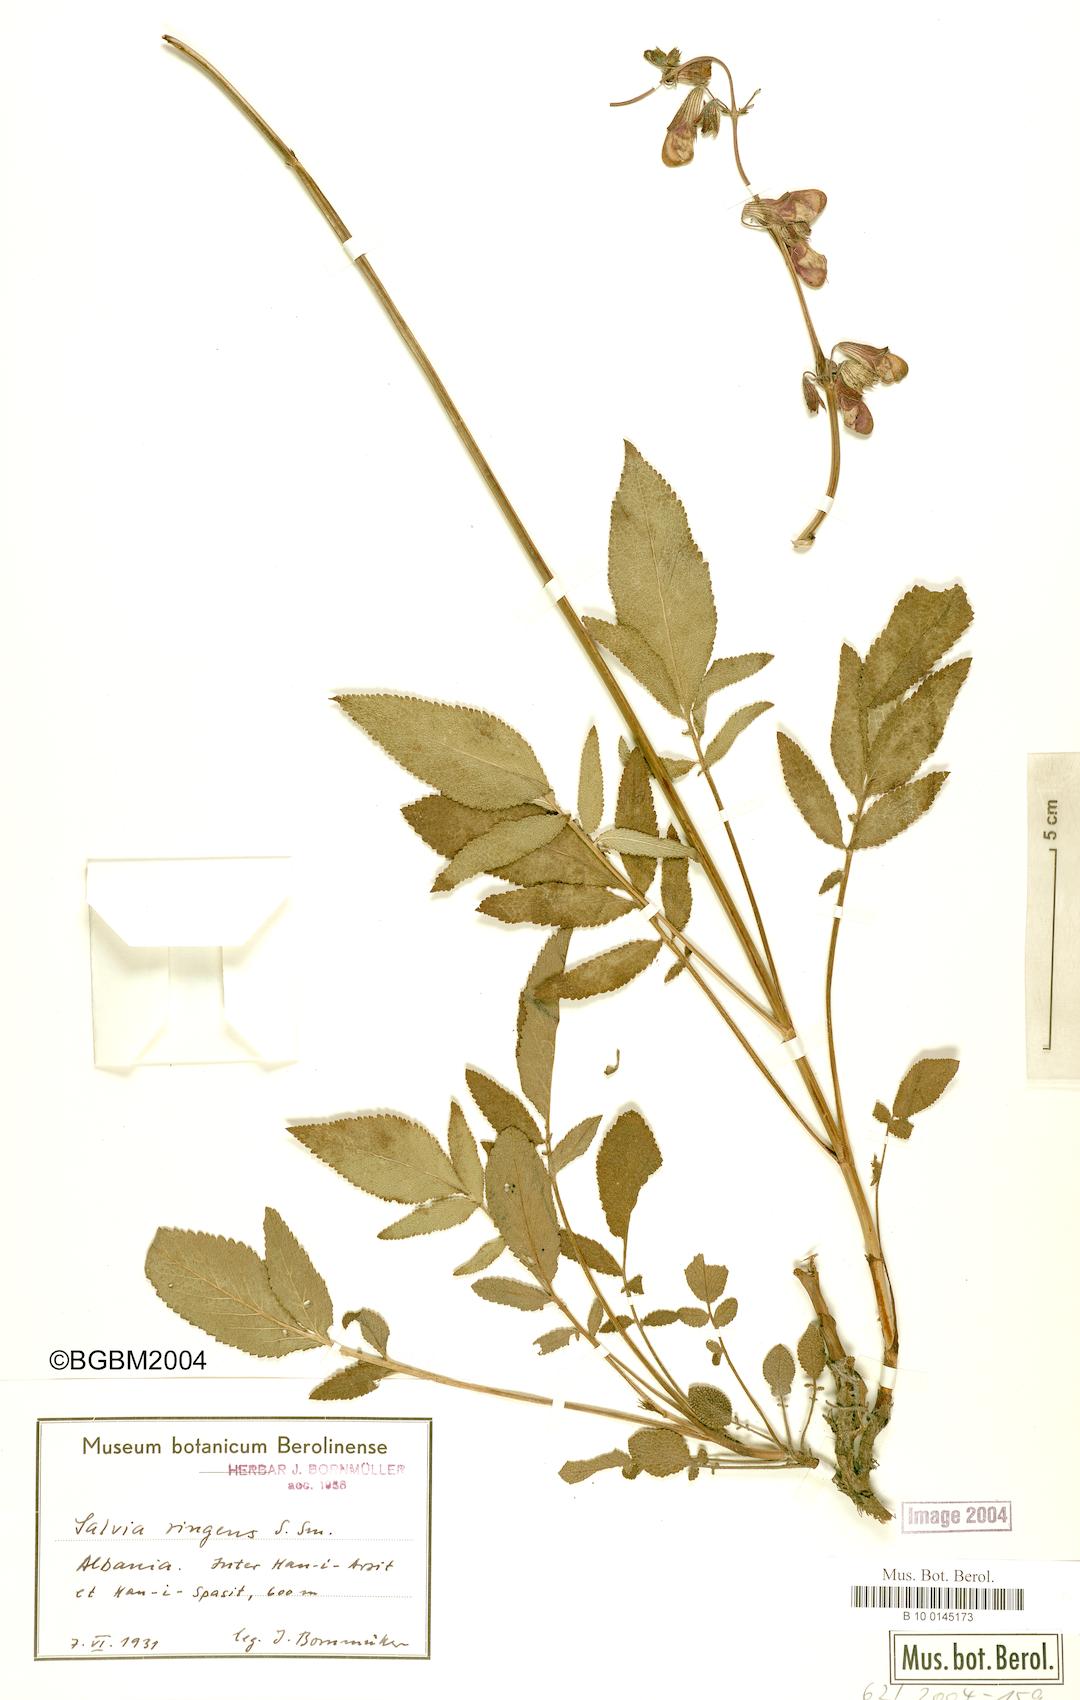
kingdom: Plantae
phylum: Tracheophyta
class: Magnoliopsida
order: Lamiales
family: Lamiaceae
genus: Salvia
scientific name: Salvia ringens
